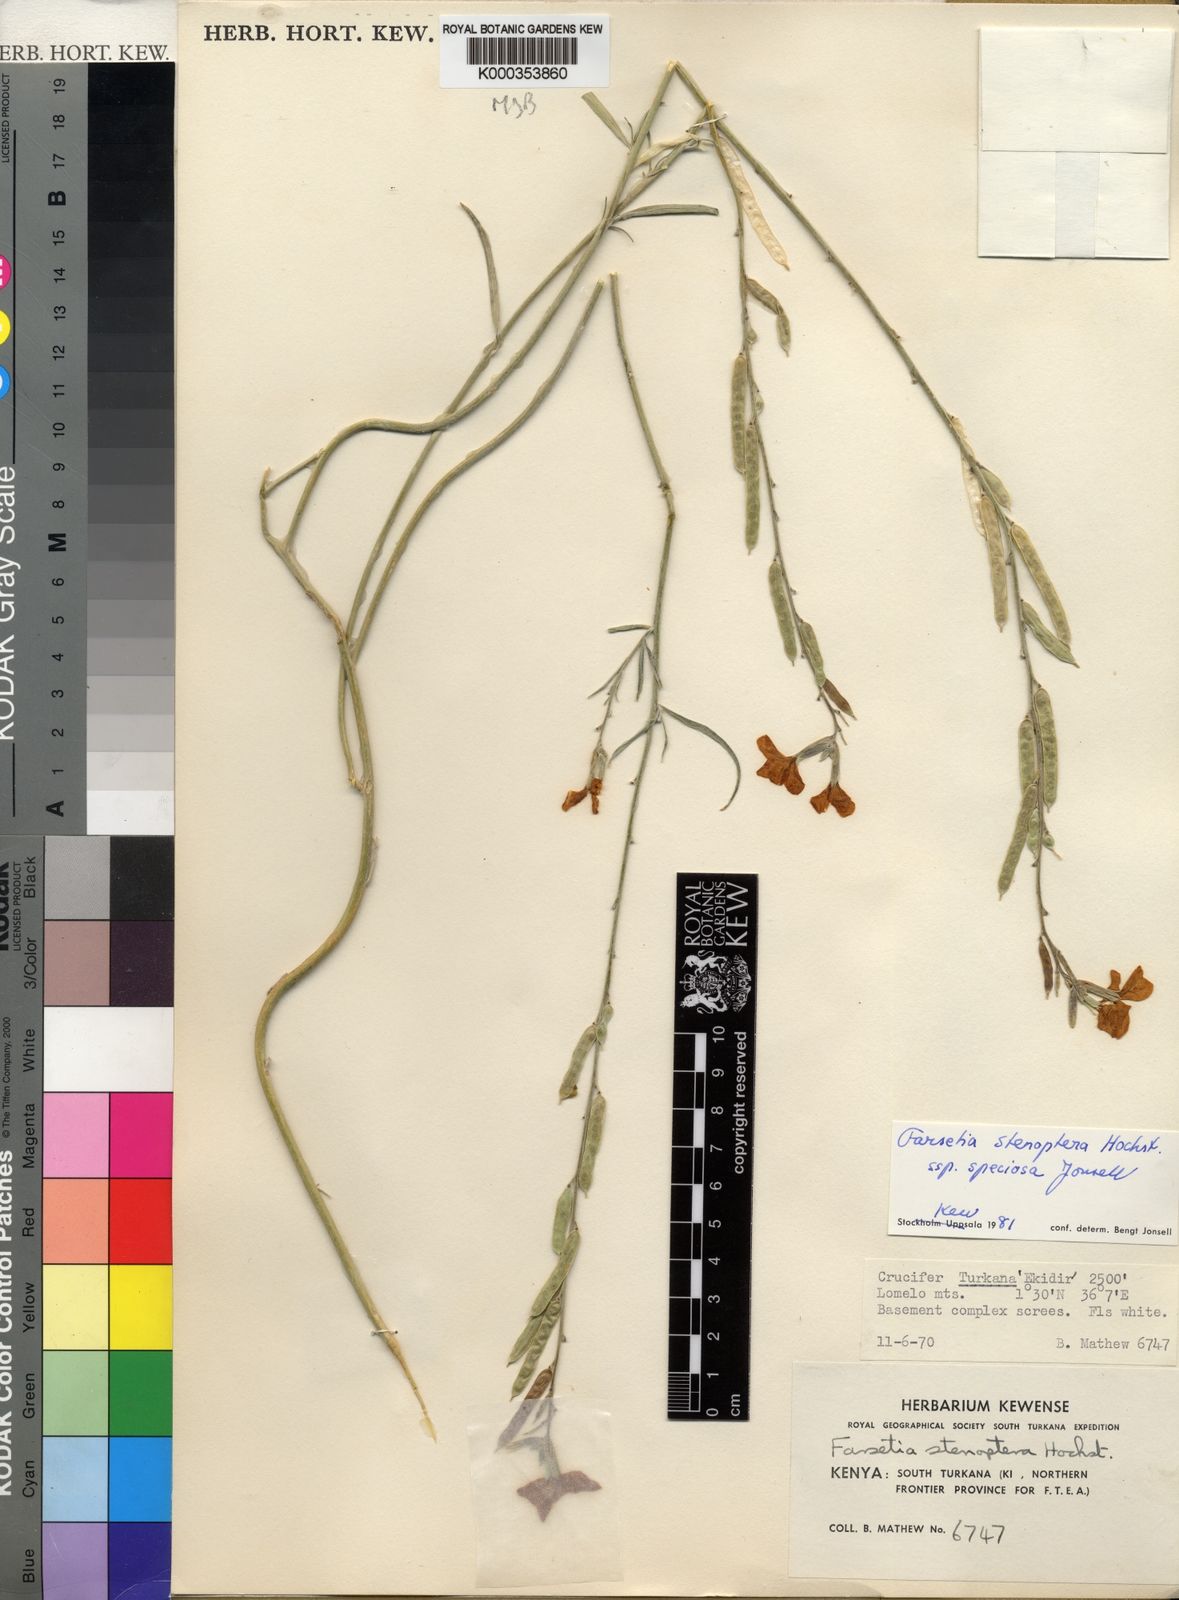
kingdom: Plantae
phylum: Tracheophyta
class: Magnoliopsida
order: Brassicales
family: Brassicaceae
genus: Farsetia
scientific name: Farsetia stenoptera
